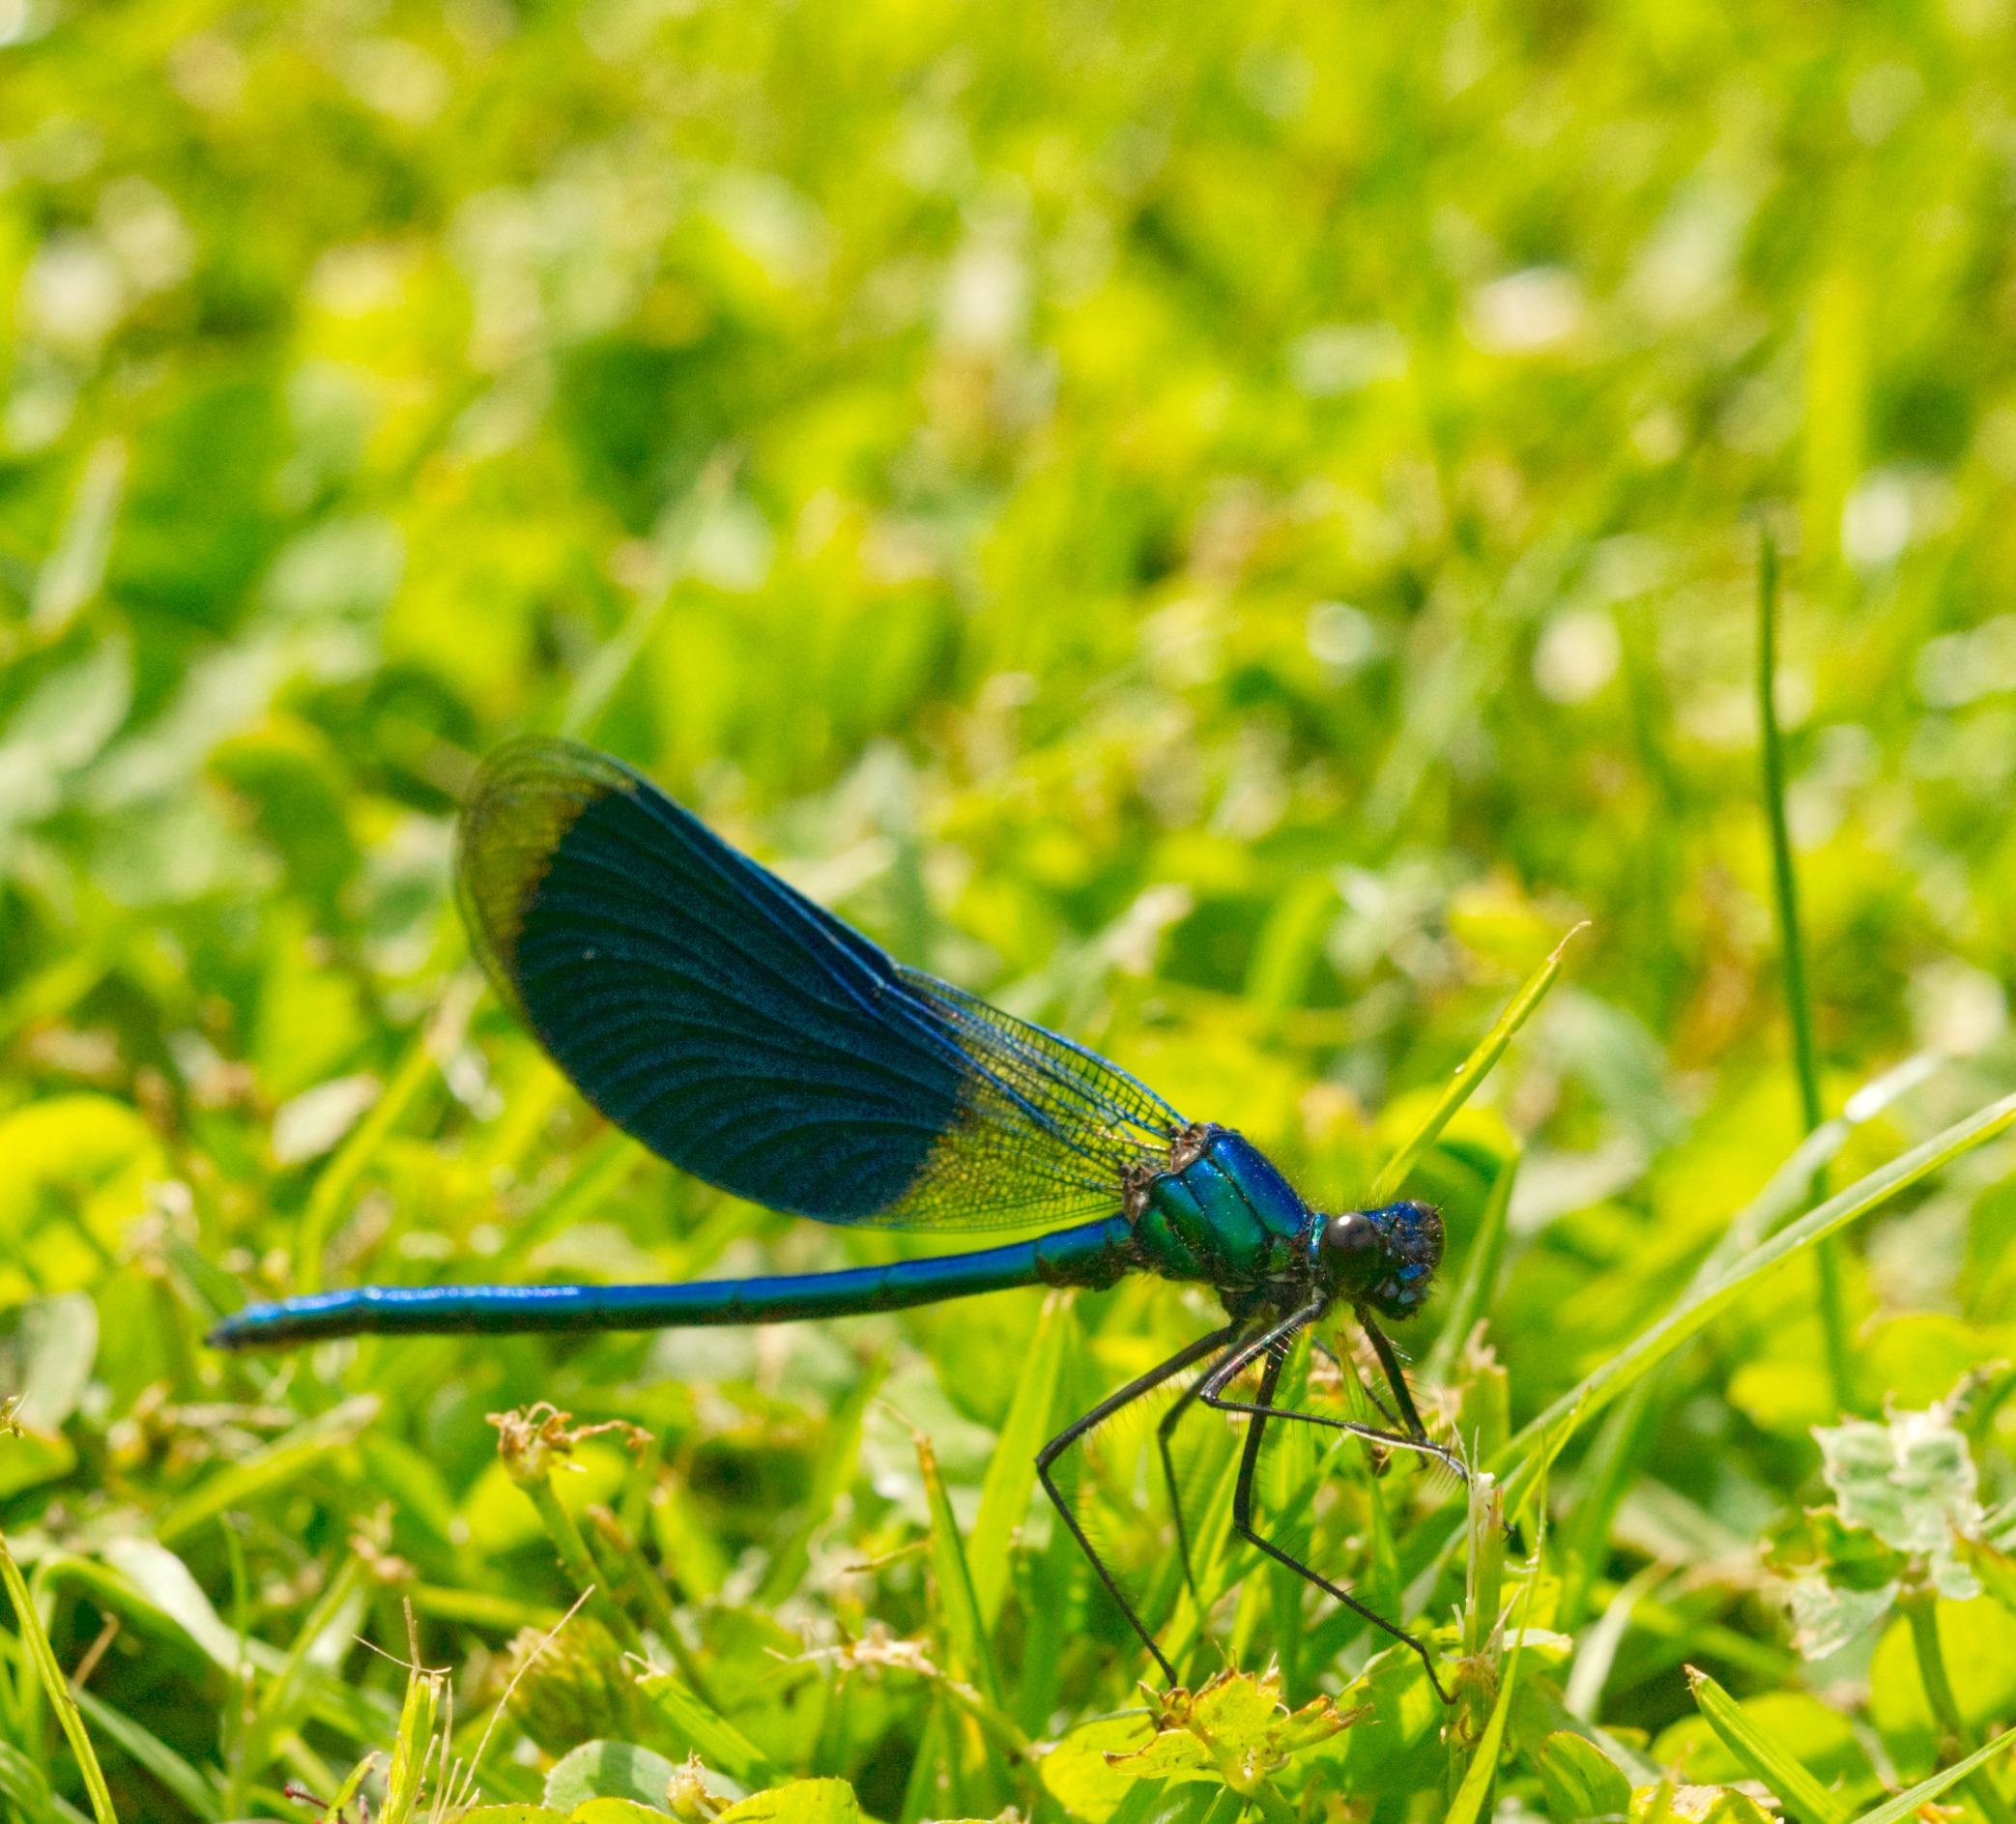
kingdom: Animalia
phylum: Arthropoda
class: Insecta
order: Odonata
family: Calopterygidae
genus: Calopteryx
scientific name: Calopteryx splendens
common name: Blåbåndet pragtvandnymfe
